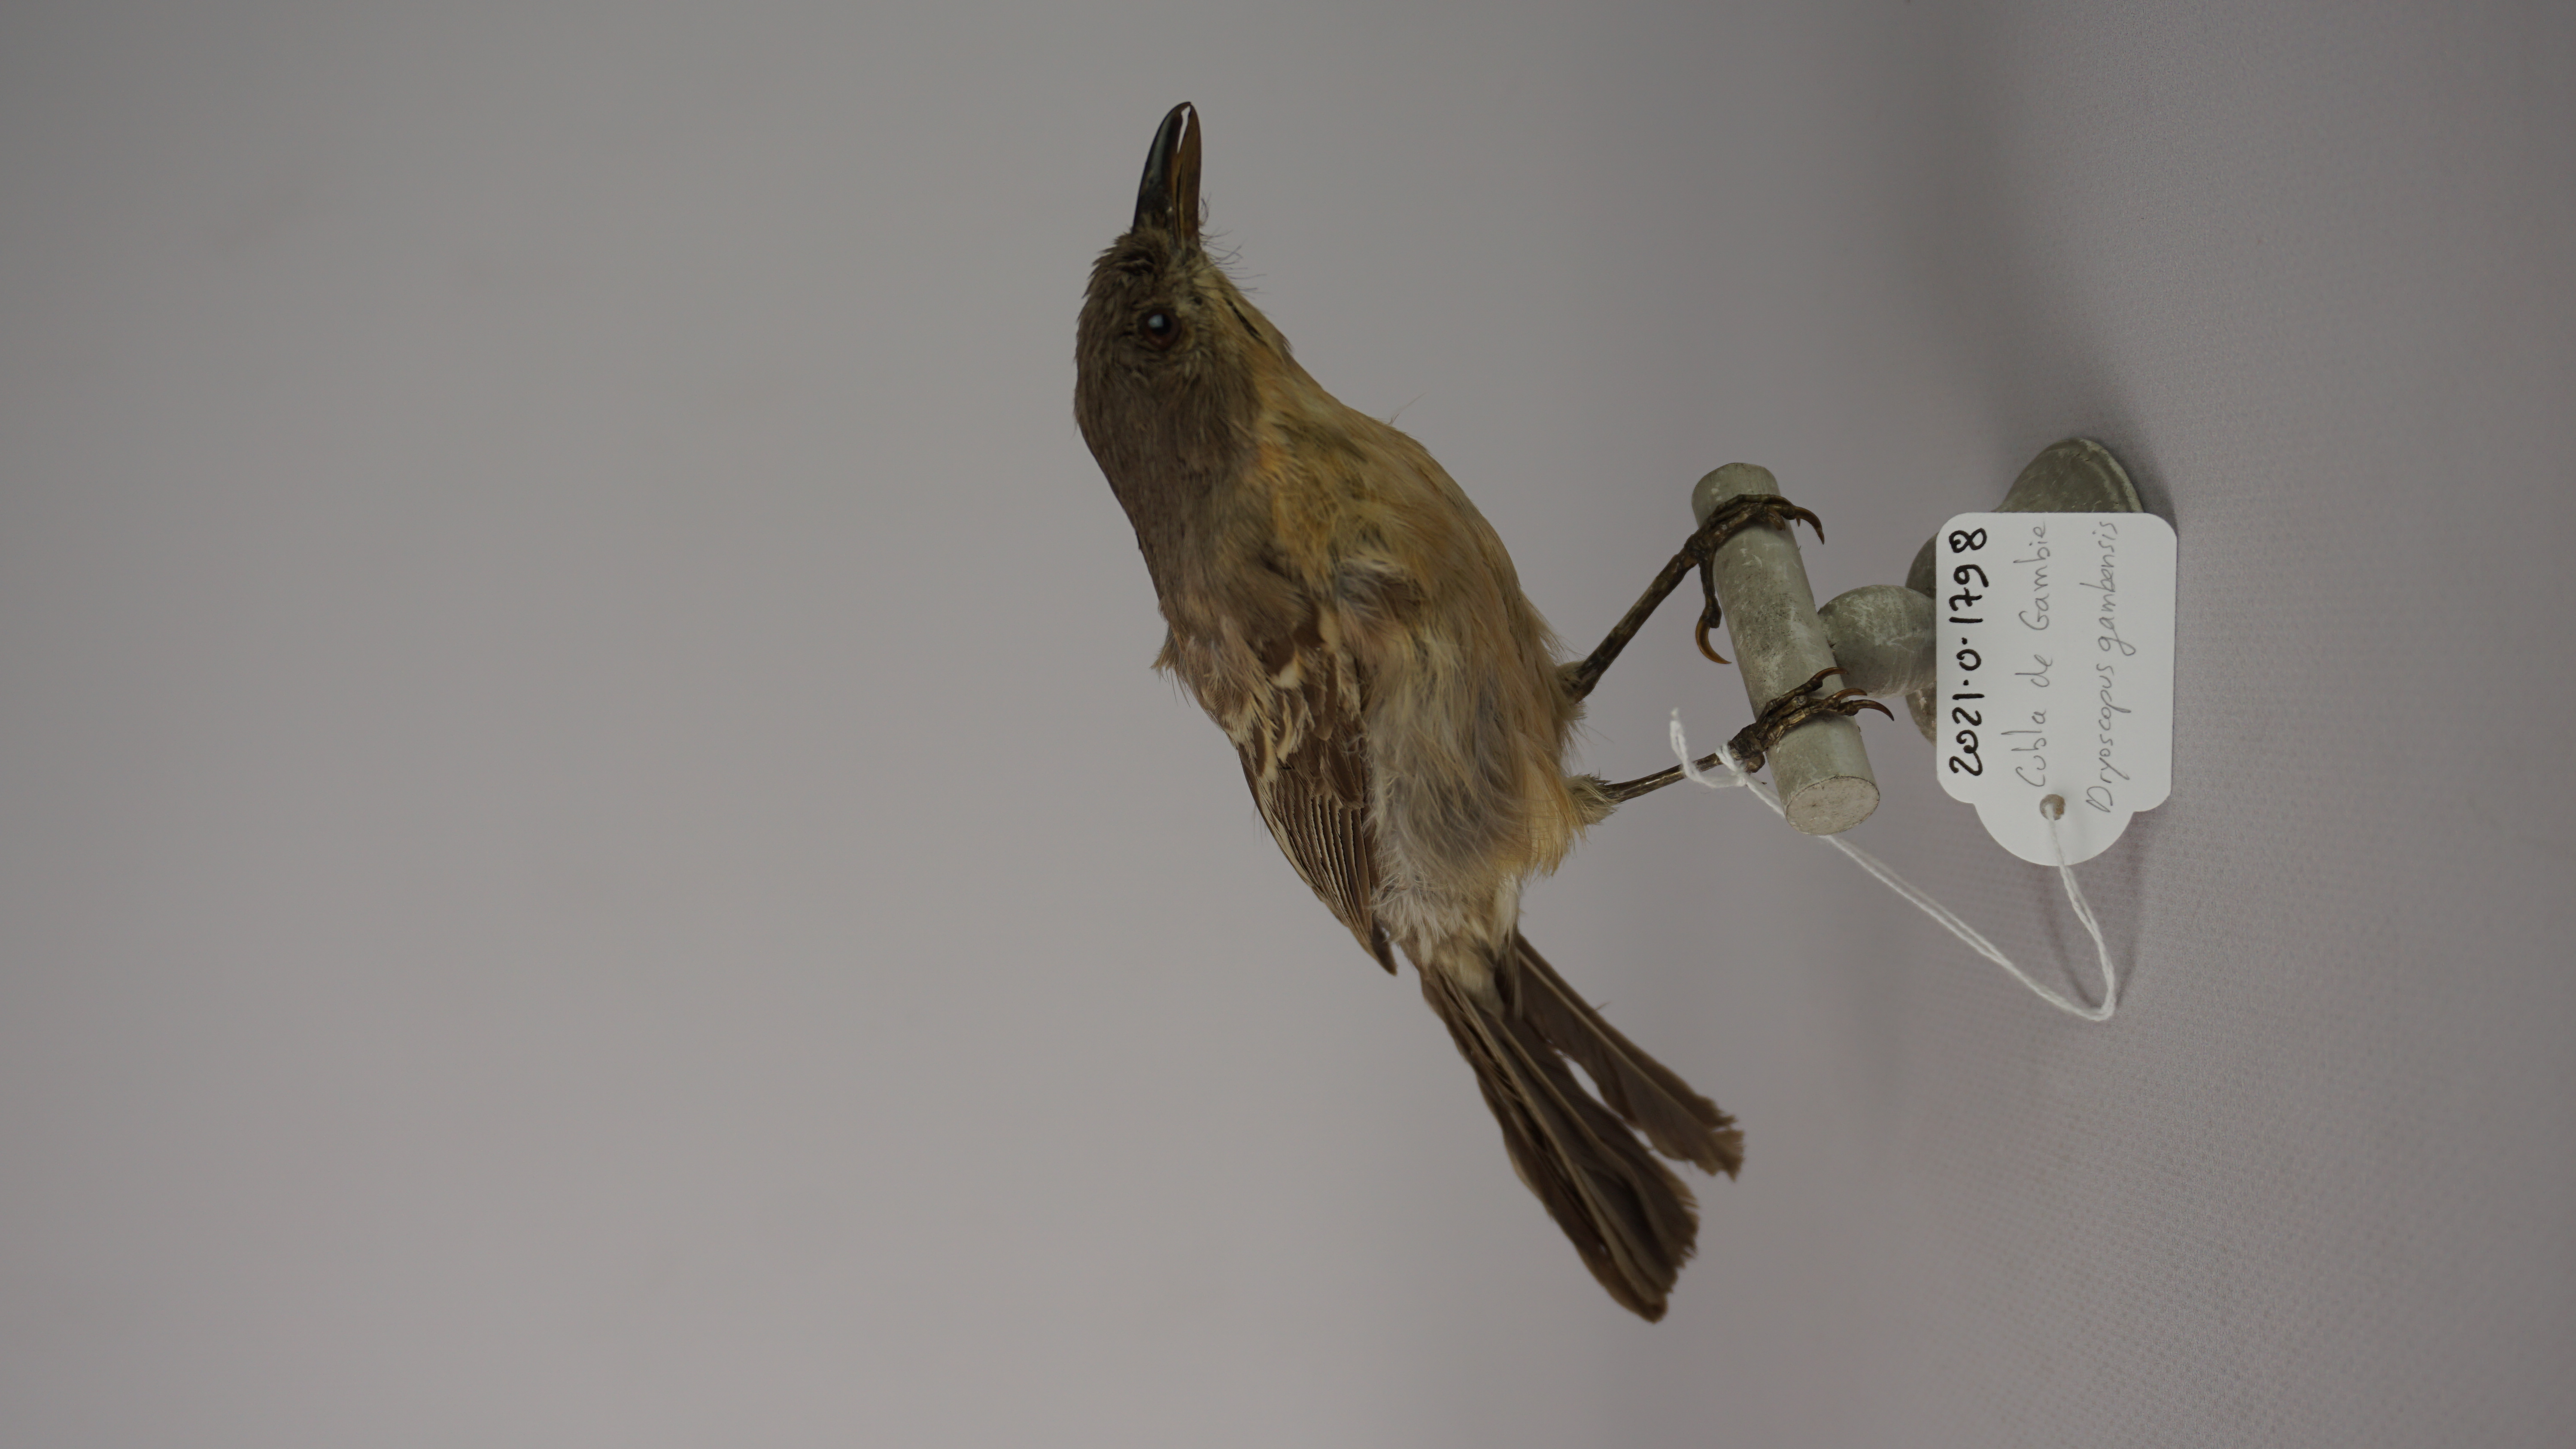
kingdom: Animalia
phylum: Chordata
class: Aves
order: Passeriformes
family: Malaconotidae
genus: Dryoscopus
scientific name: Dryoscopus gambensis
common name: Northern puffback
